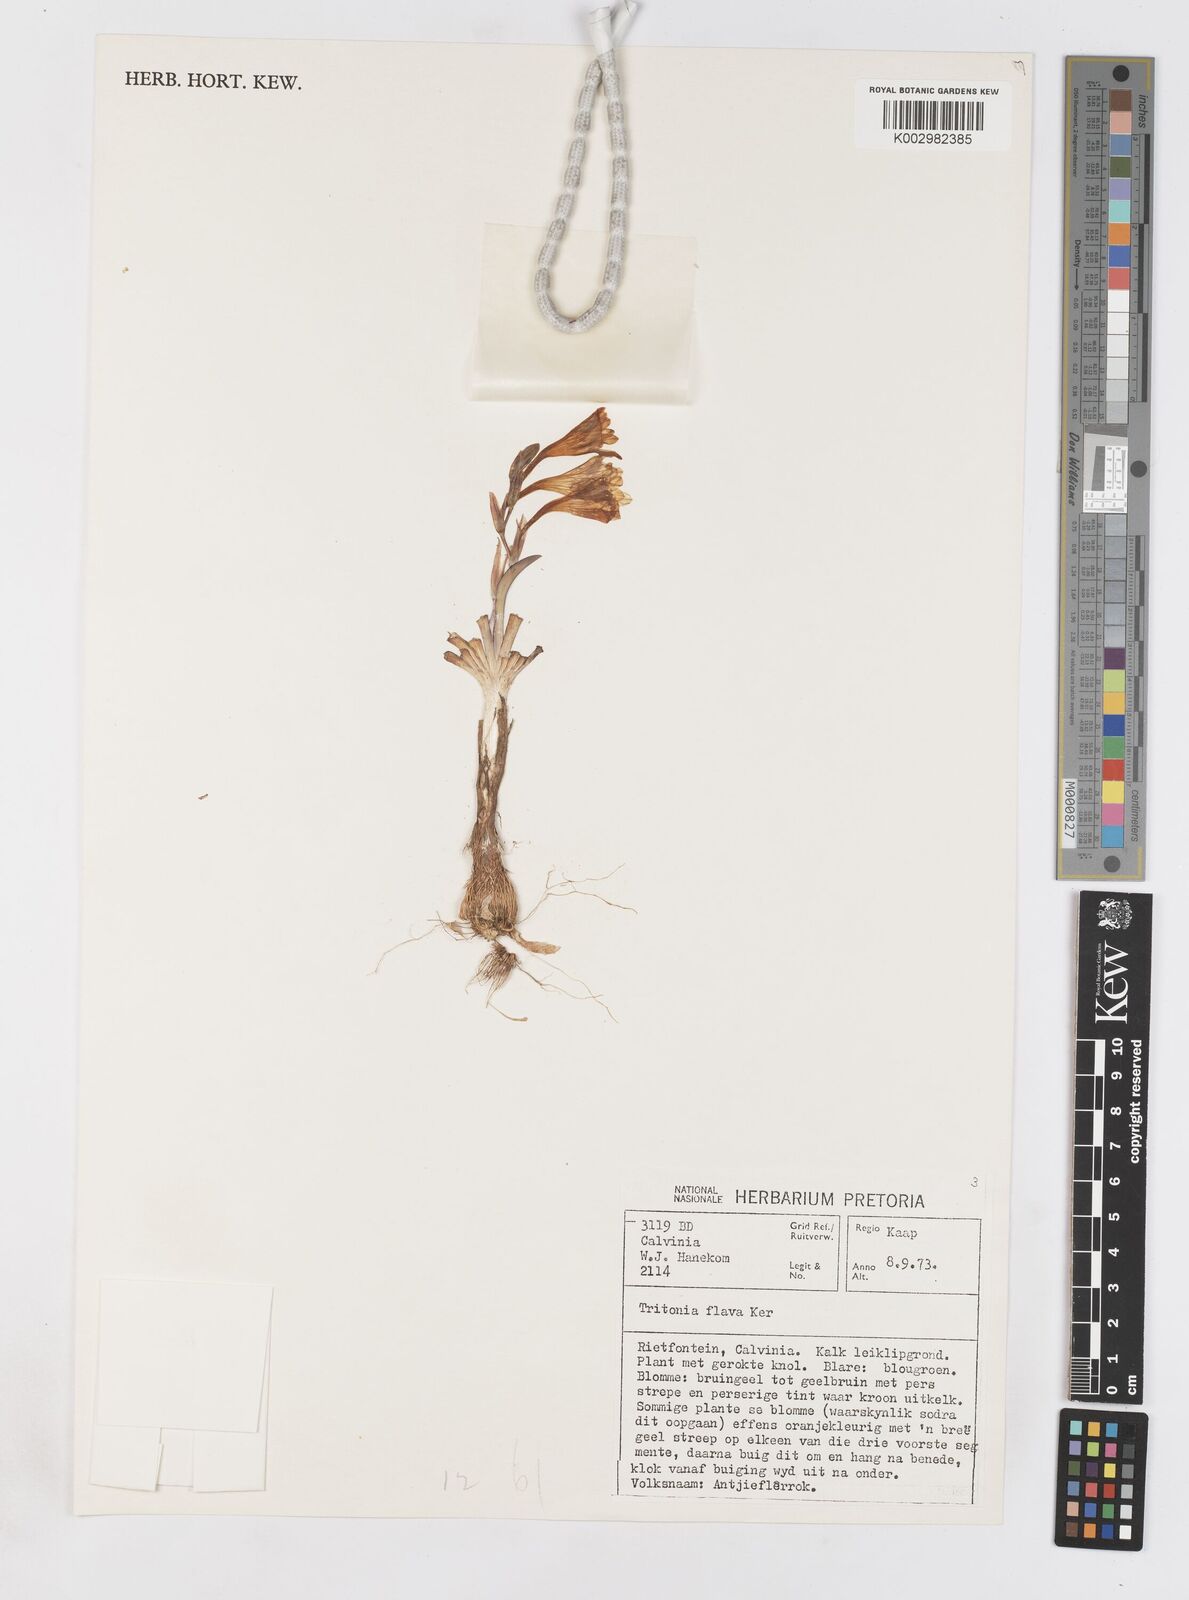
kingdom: Plantae
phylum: Tracheophyta
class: Liliopsida
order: Asparagales
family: Iridaceae
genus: Tritonia
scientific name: Tritonia flabellifolia
